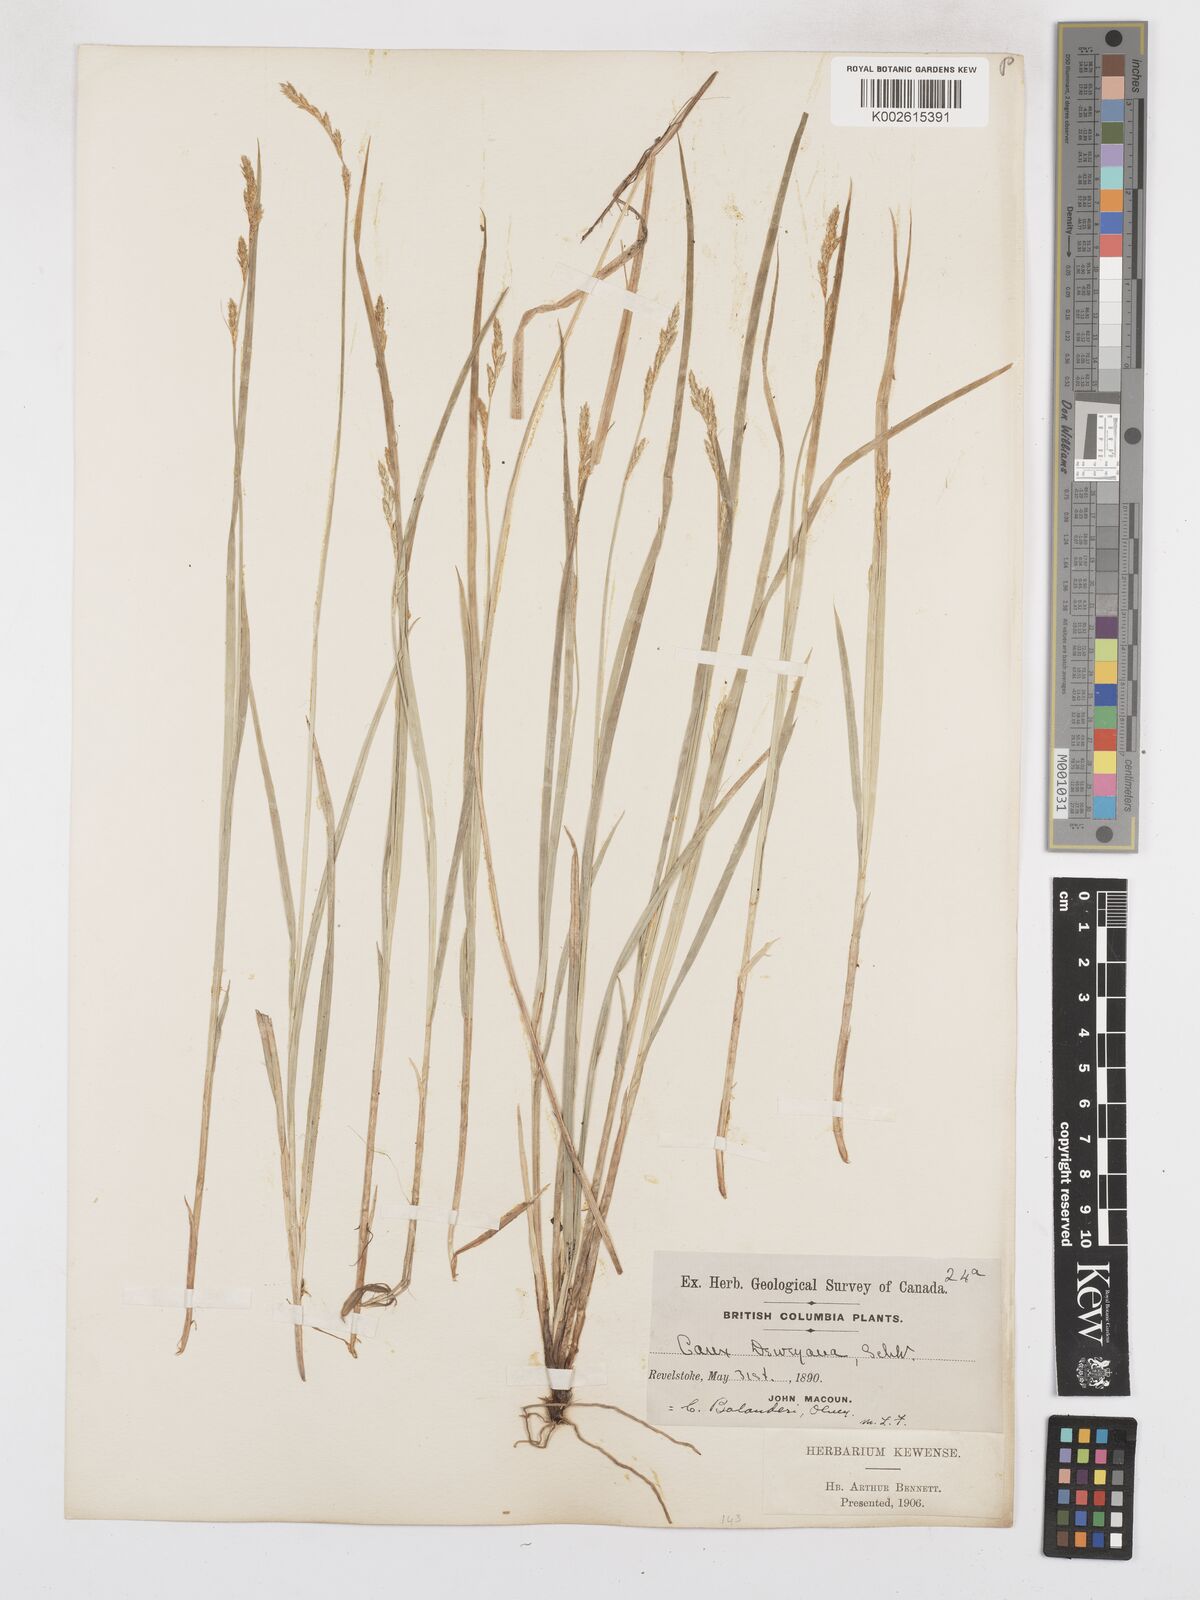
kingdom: Plantae
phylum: Tracheophyta
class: Liliopsida
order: Poales
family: Cyperaceae
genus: Carex
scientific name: Carex bolanderi
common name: Bolander's sedge
